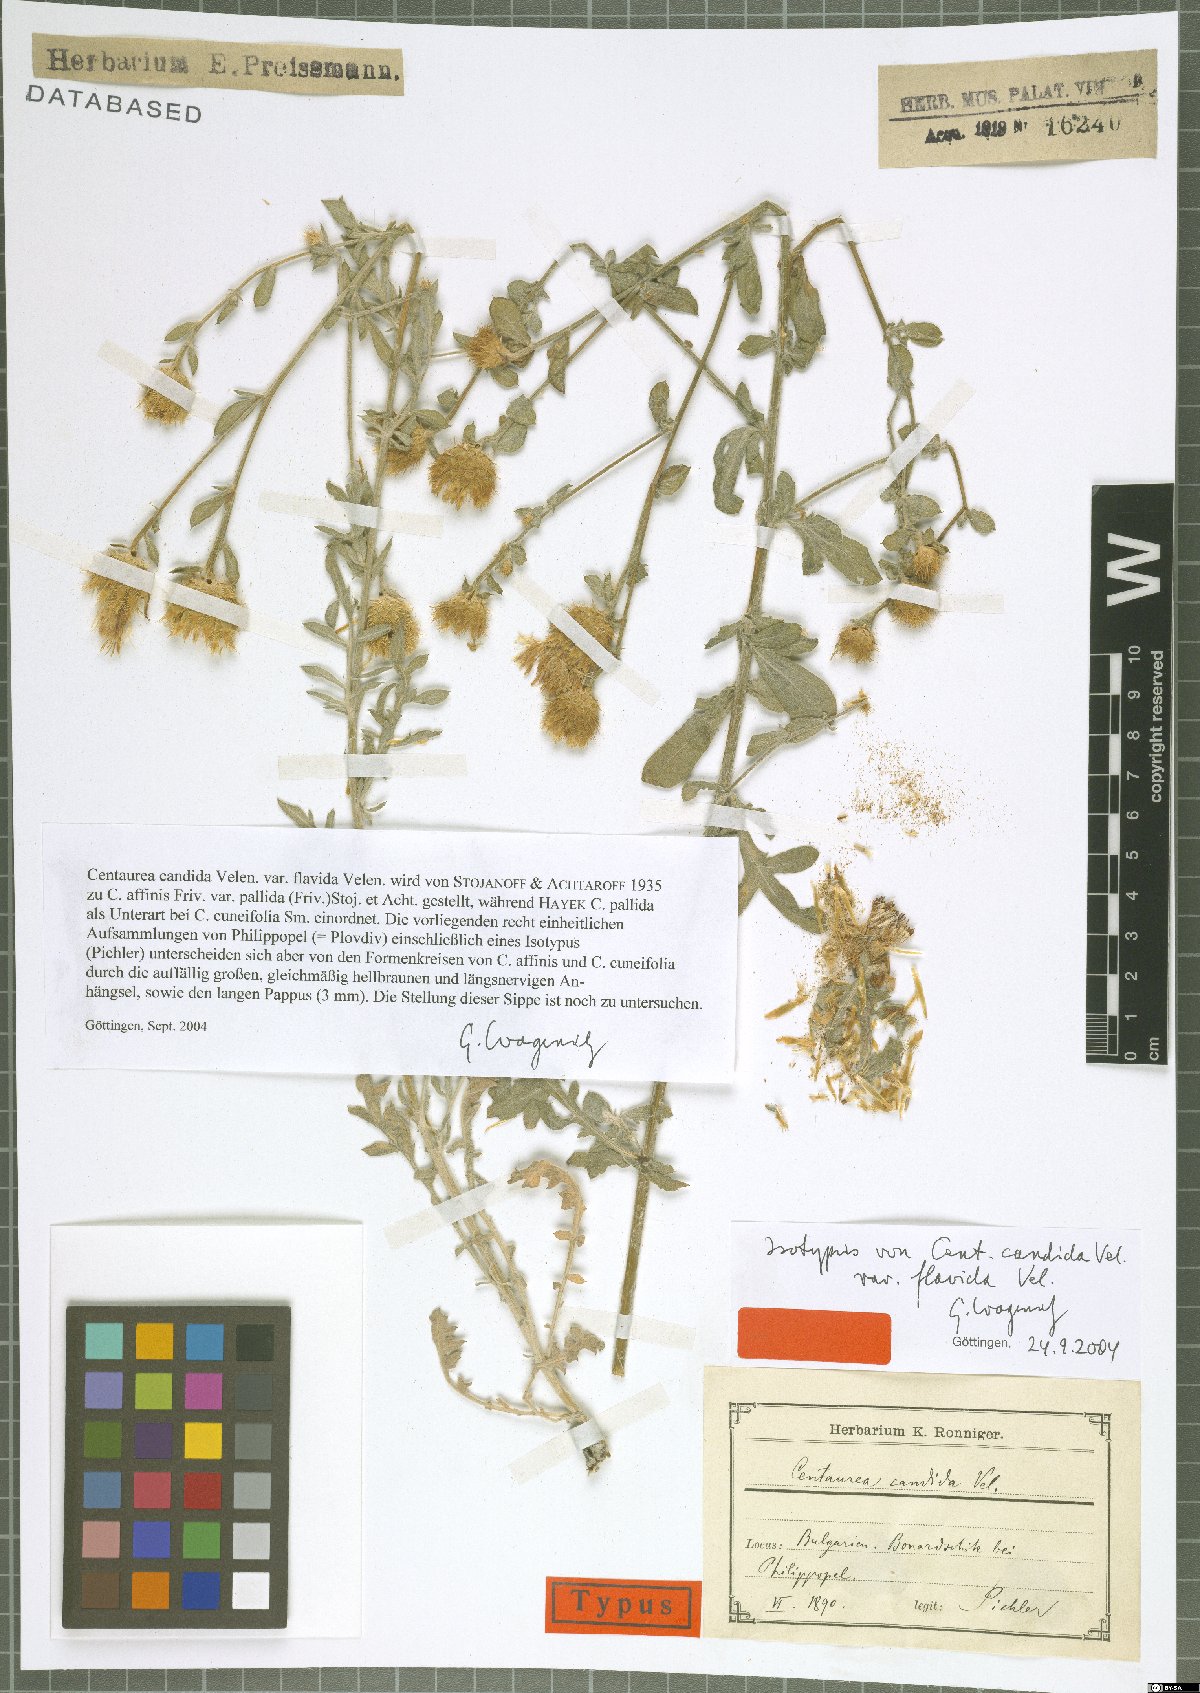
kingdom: Plantae
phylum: Tracheophyta
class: Magnoliopsida
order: Asterales
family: Asteraceae
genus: Centaurea
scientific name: Centaurea affinis
